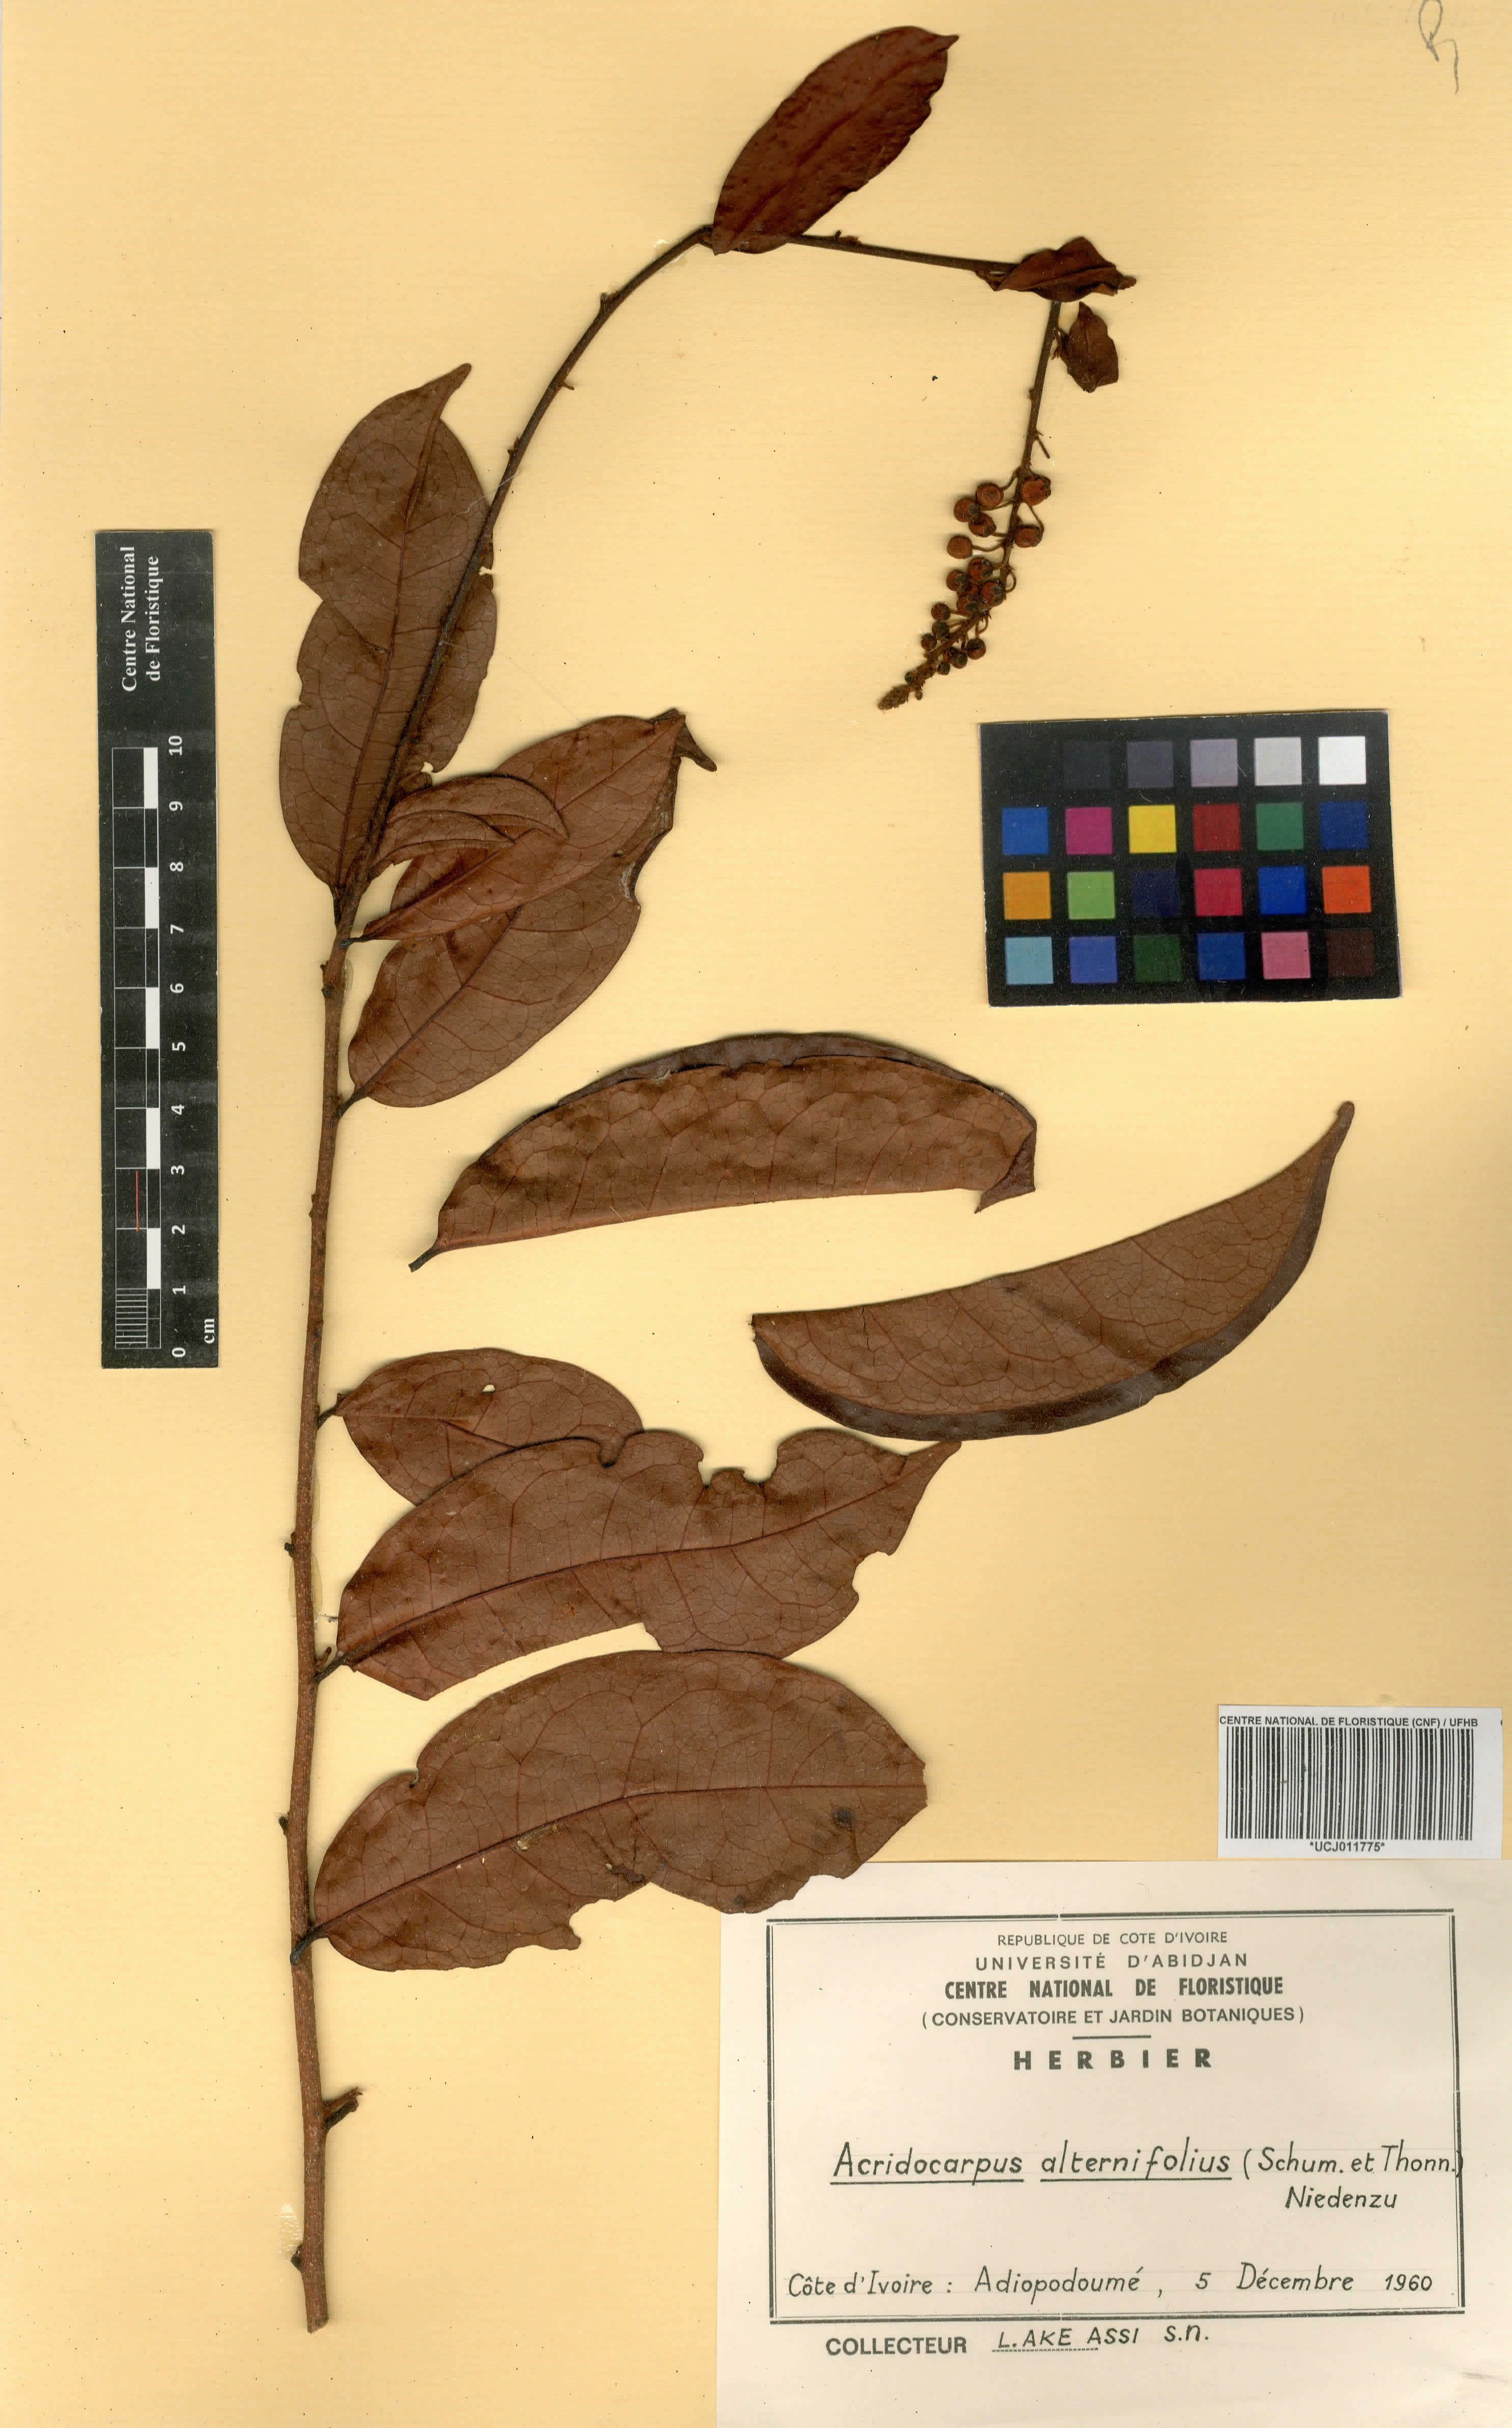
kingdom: Plantae
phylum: Tracheophyta
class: Magnoliopsida
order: Malpighiales
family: Malpighiaceae
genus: Acridocarpus
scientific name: Acridocarpus alternifolius
